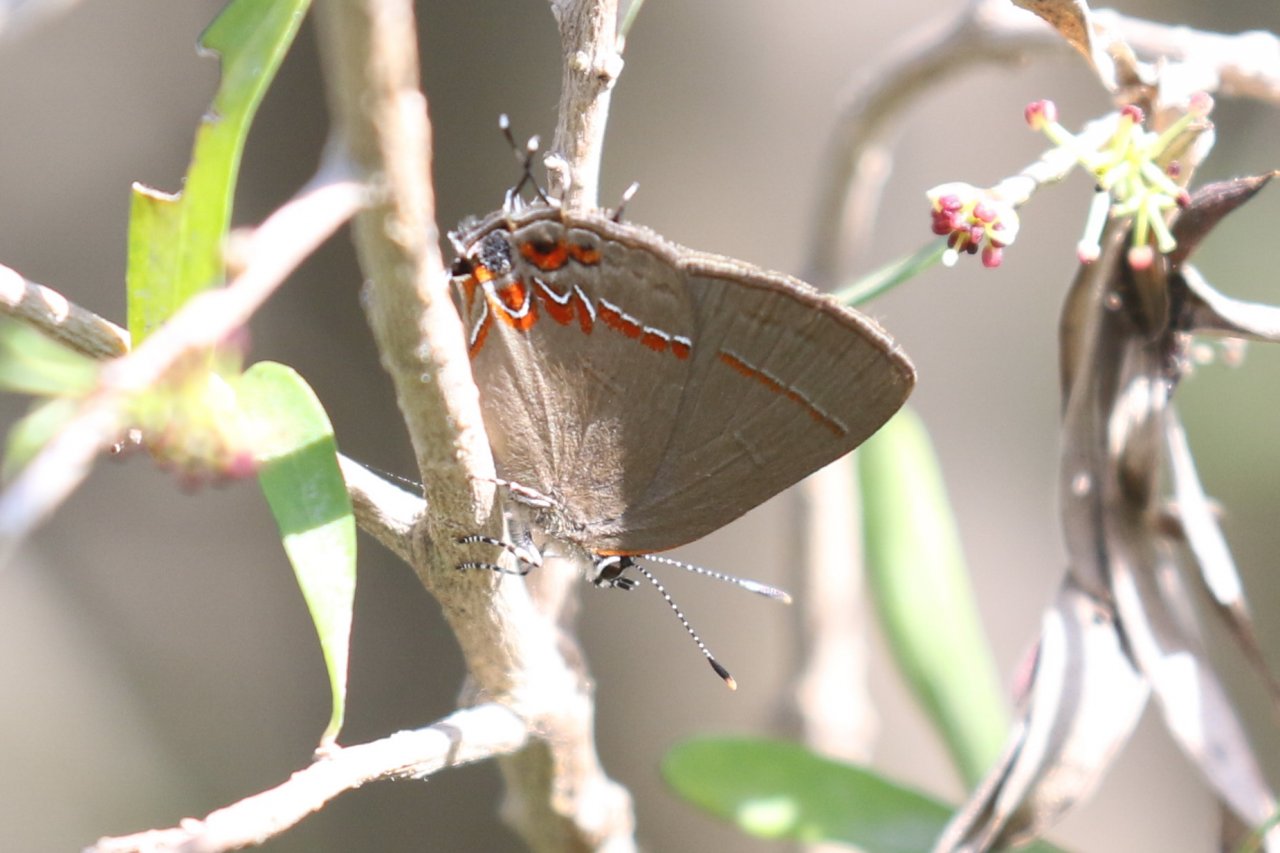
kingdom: Animalia
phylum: Arthropoda
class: Insecta
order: Lepidoptera
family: Lycaenidae
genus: Calycopis
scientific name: Calycopis isobeon
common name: Dusky-blue Groundstreak
